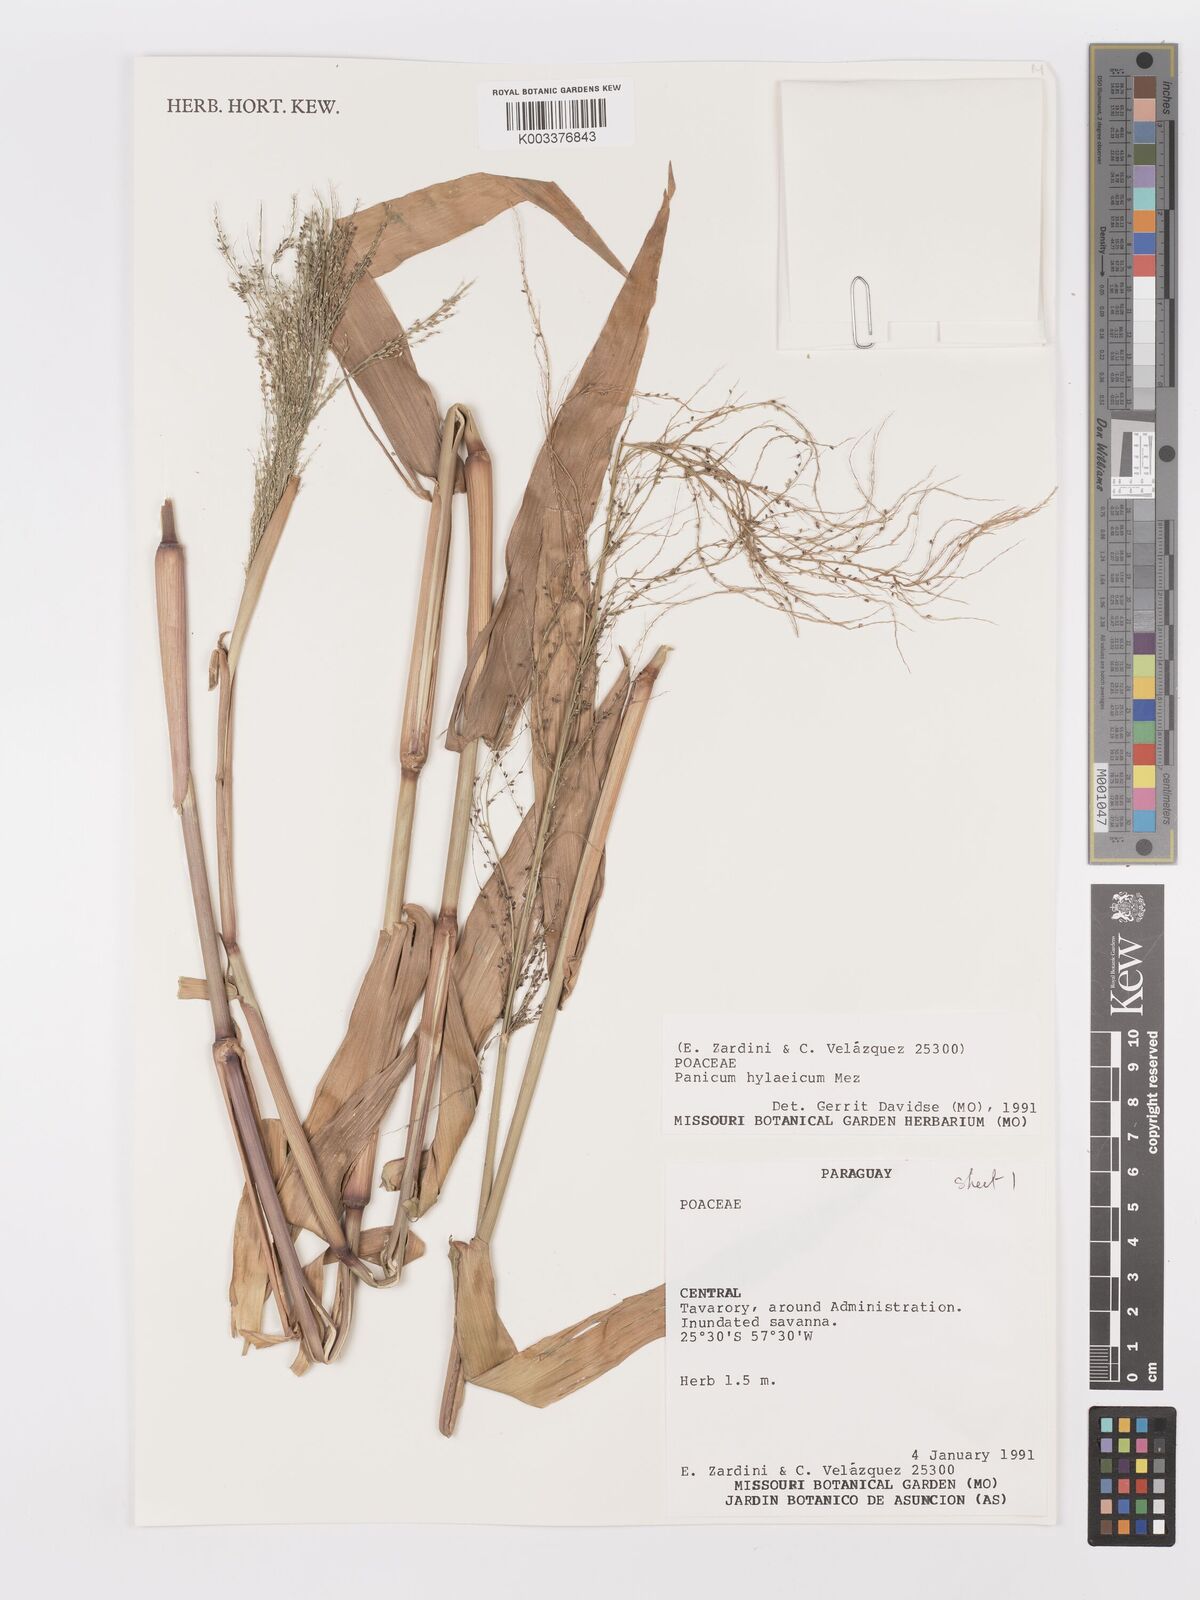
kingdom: Plantae
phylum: Tracheophyta
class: Liliopsida
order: Poales
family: Poaceae
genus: Rugoloa
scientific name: Rugoloa hylaeica
